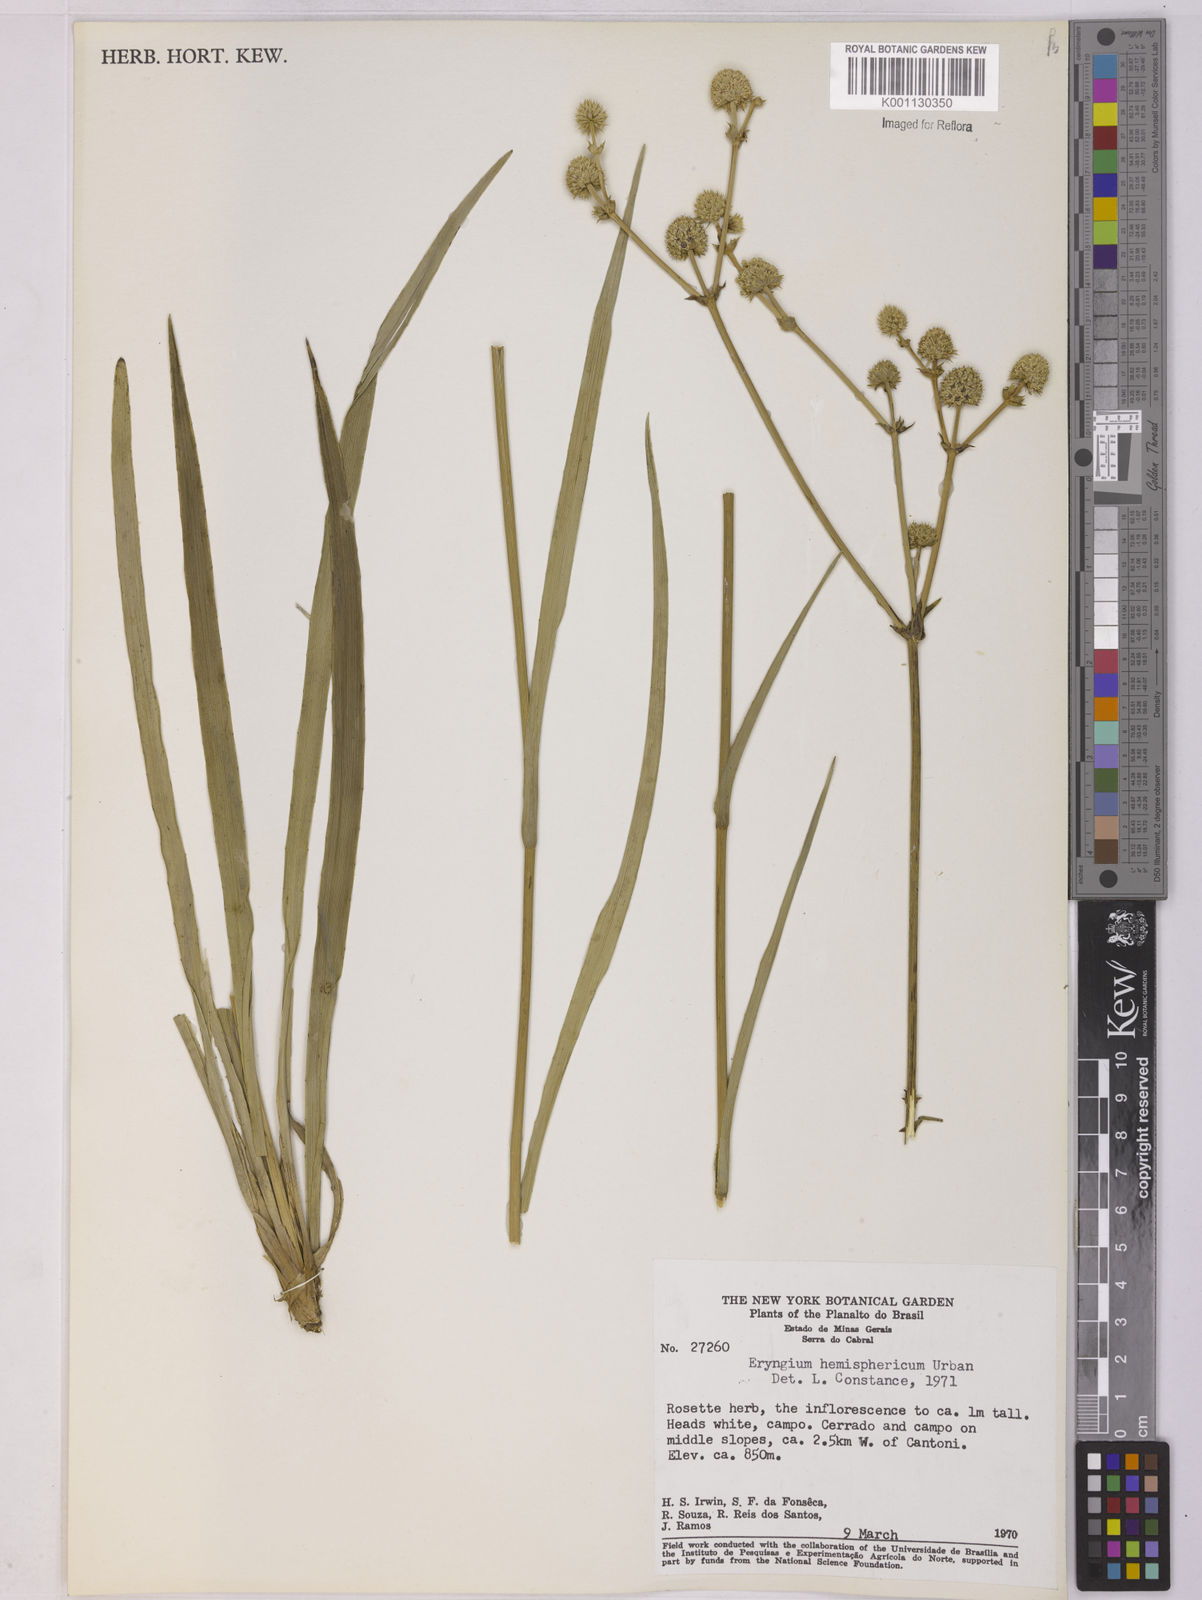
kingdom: Plantae
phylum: Tracheophyta
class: Magnoliopsida
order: Apiales
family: Apiaceae
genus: Eryngium
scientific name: Eryngium hemisphaericum
